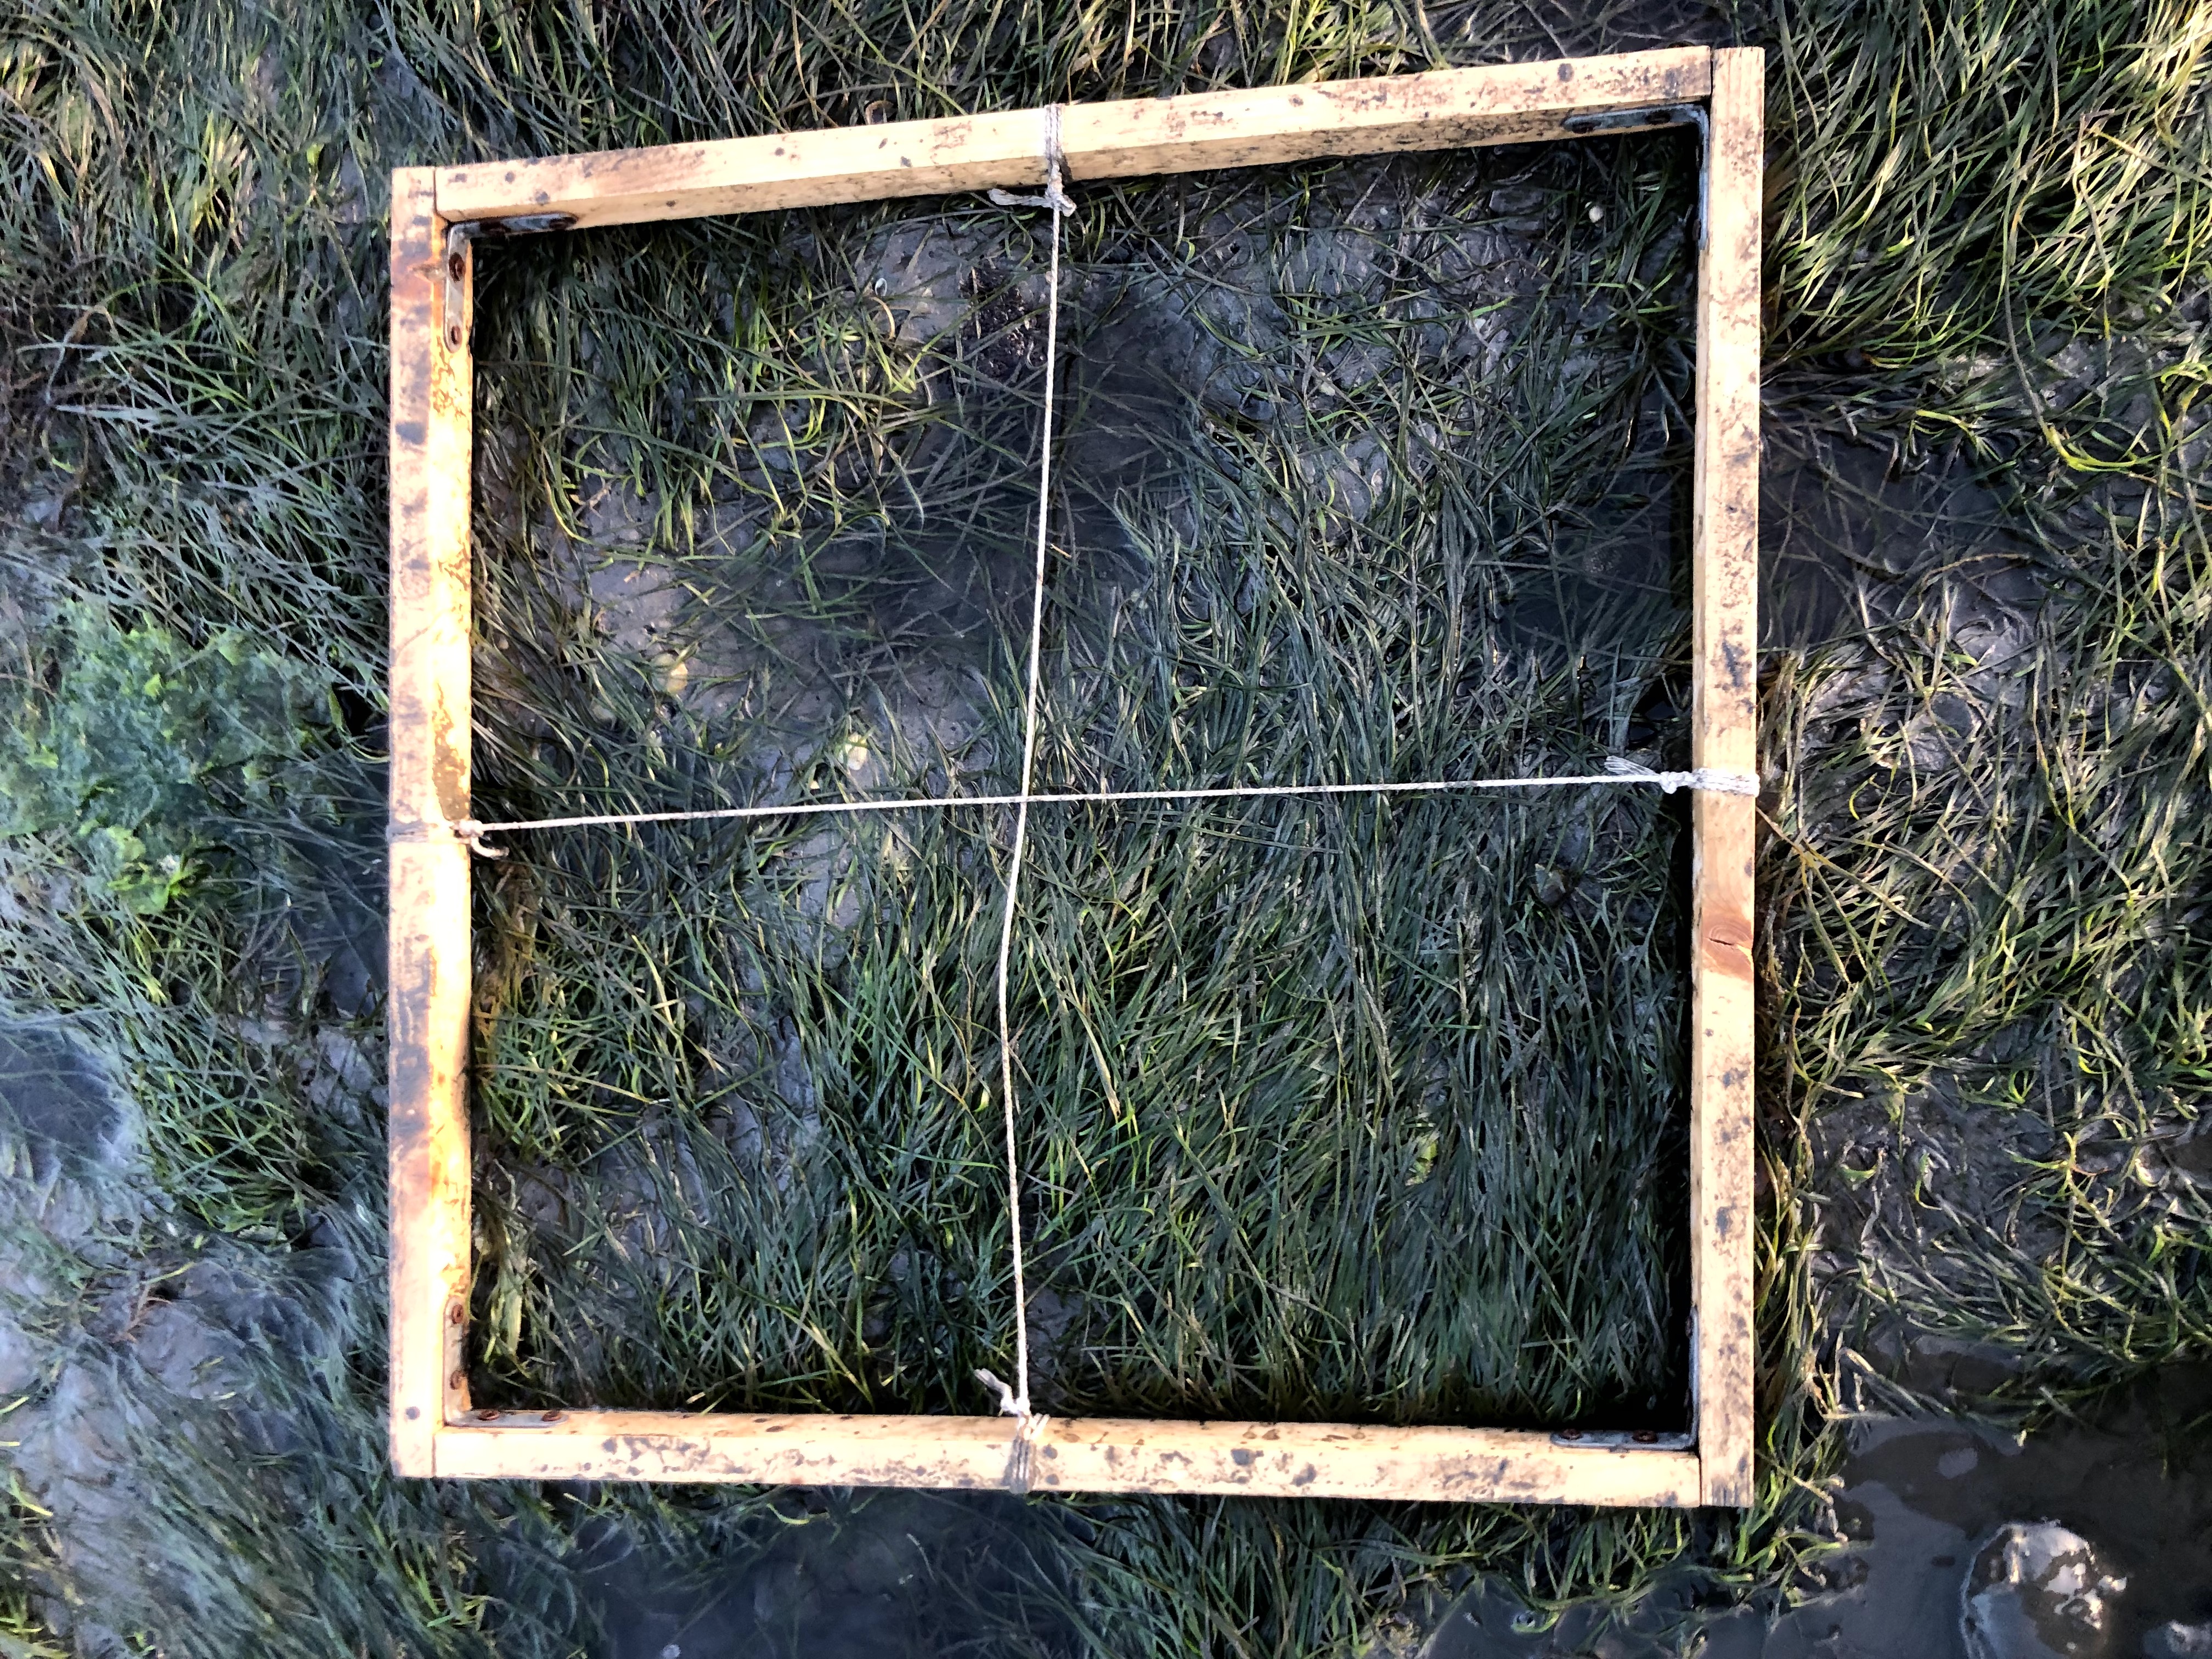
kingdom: Plantae
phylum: Tracheophyta
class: Liliopsida
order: Alismatales
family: Zosteraceae
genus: Zostera
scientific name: Zostera noltii
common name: Dwarf eelgrass
